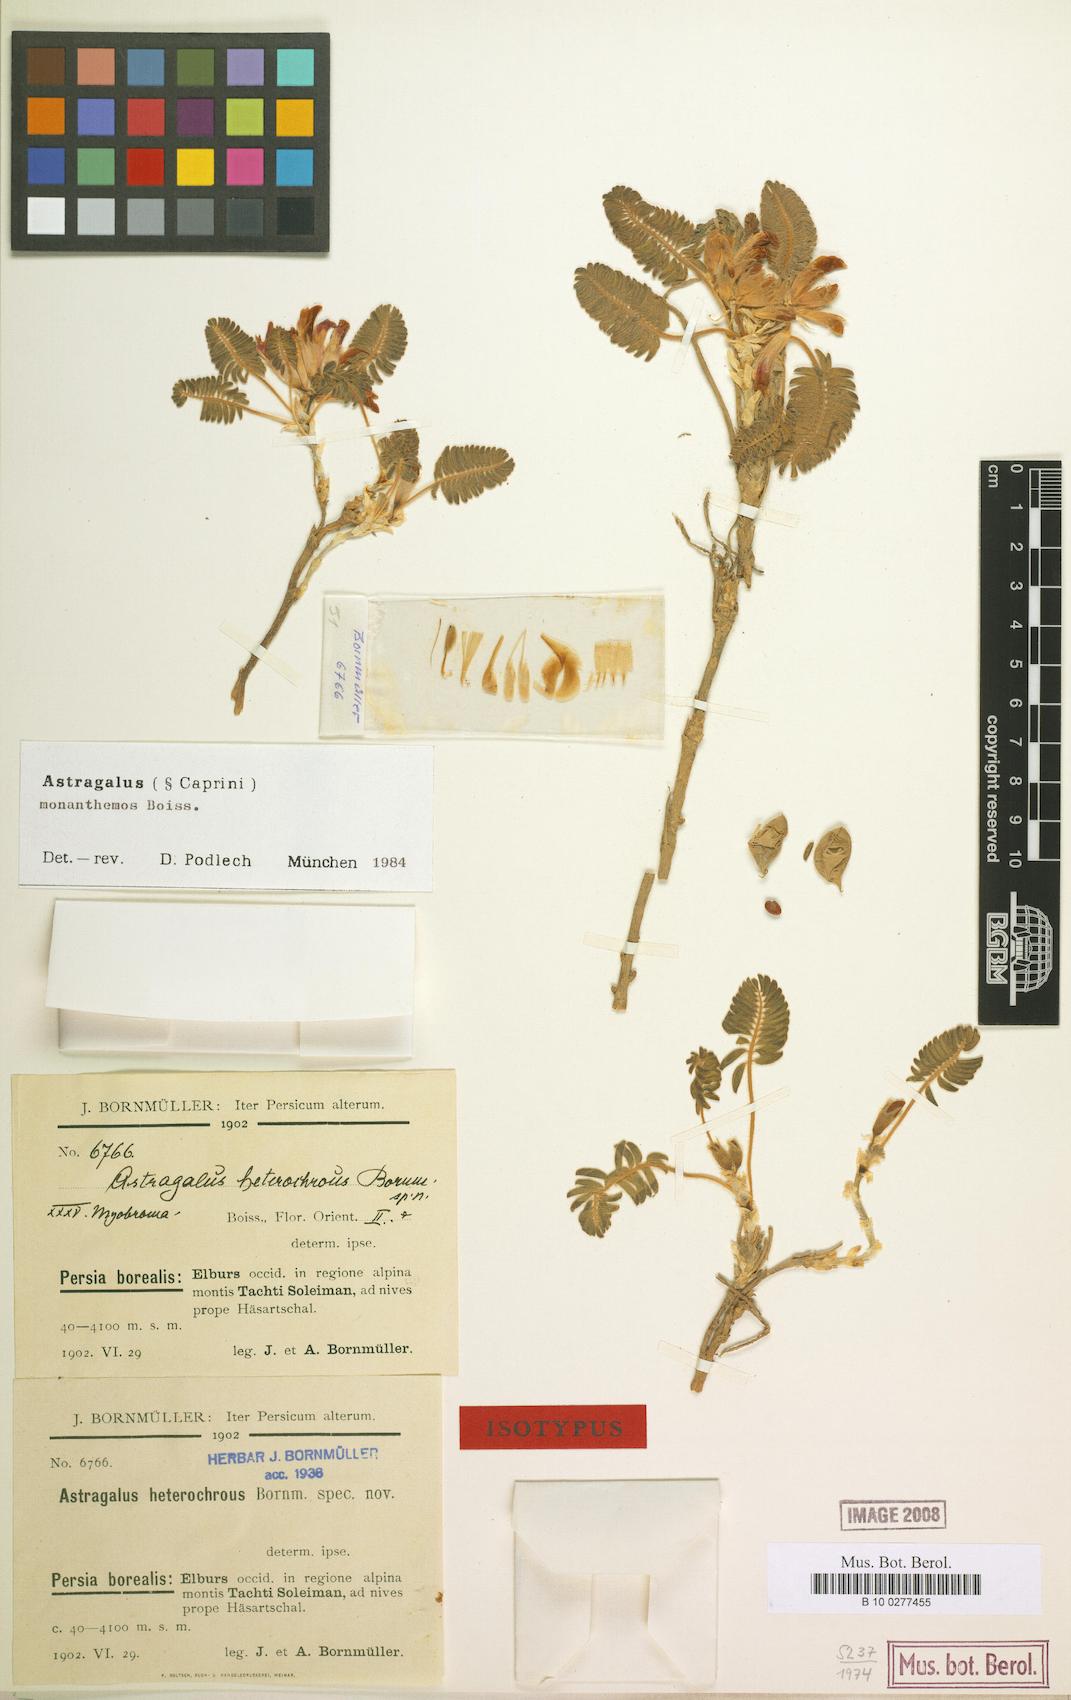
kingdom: Plantae
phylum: Tracheophyta
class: Magnoliopsida
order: Fabales
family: Fabaceae
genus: Astragalus
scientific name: Astragalus monanthemus
